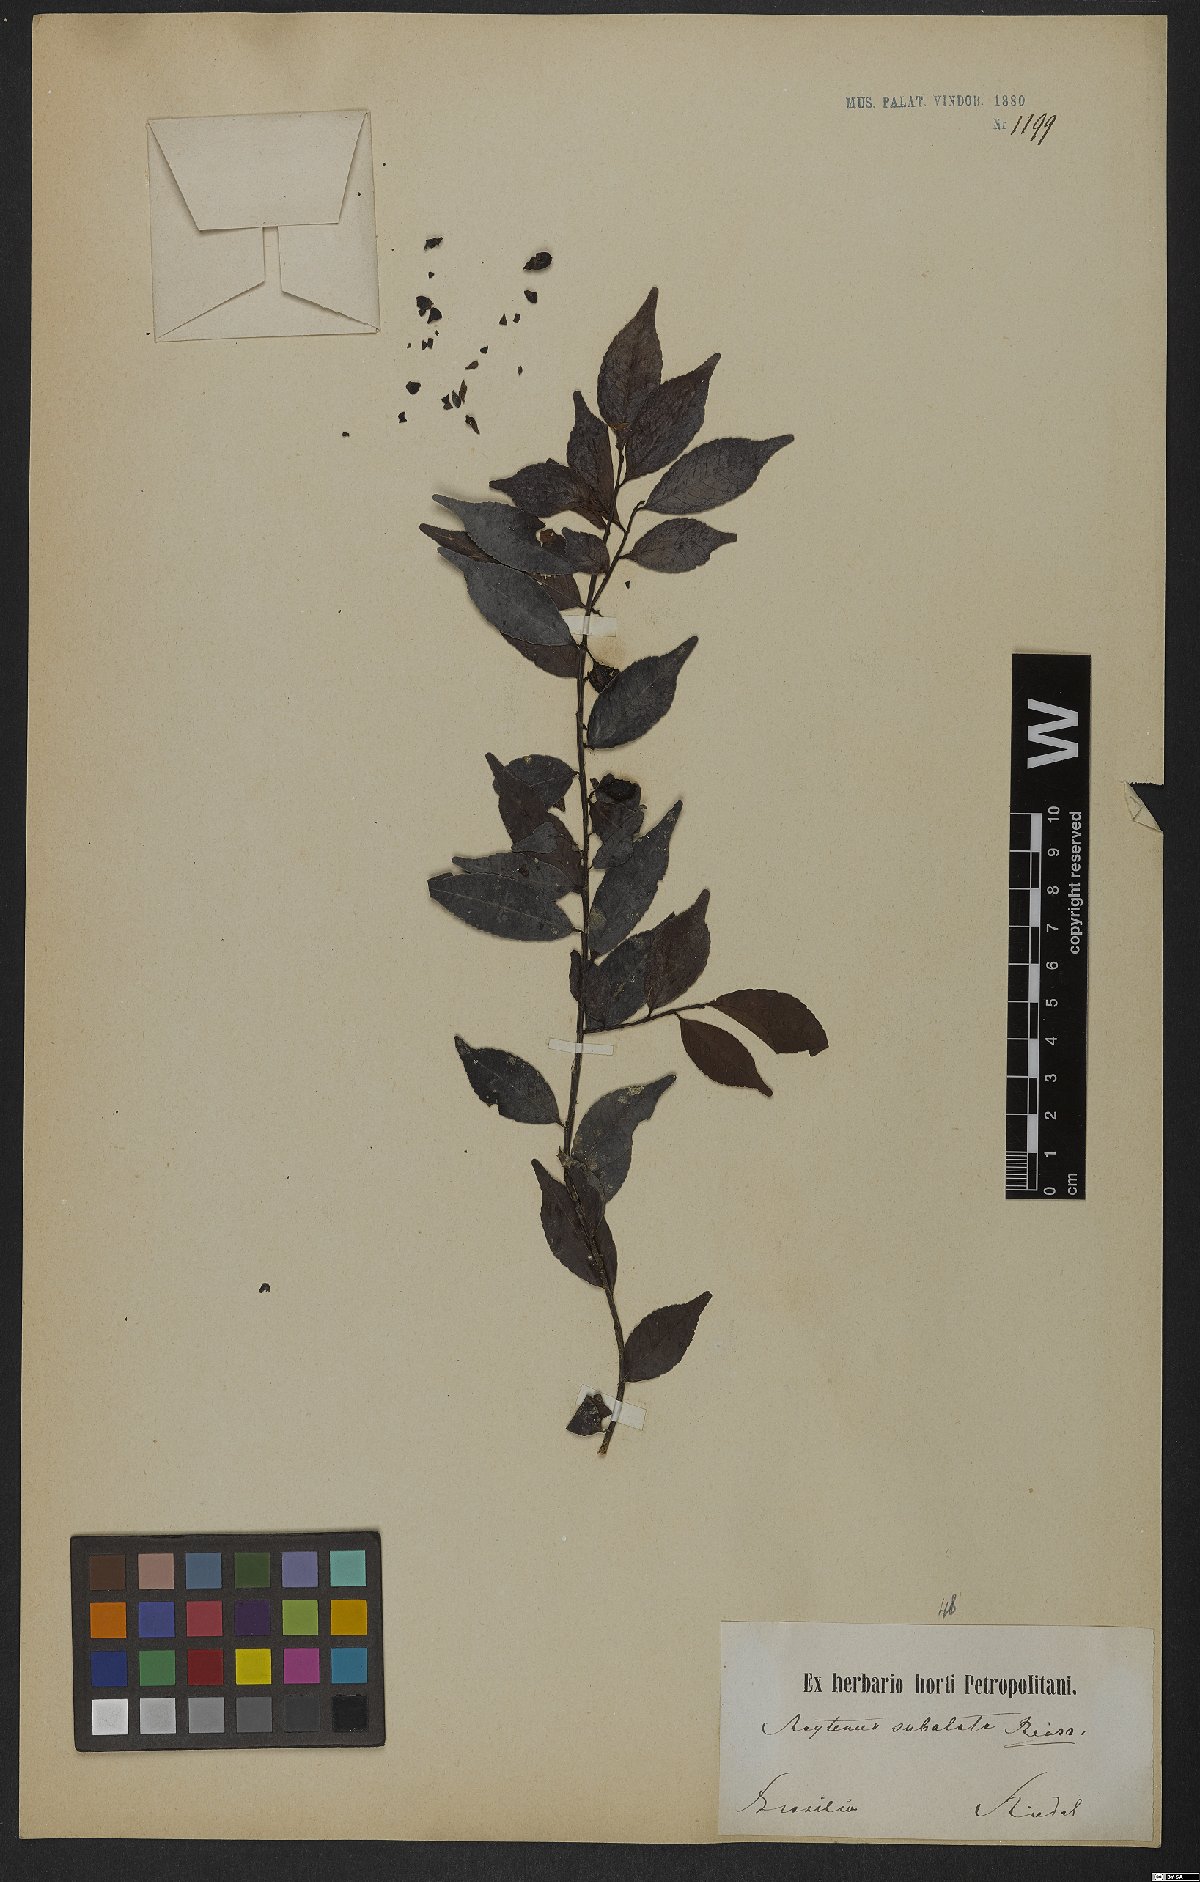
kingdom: Plantae
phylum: Tracheophyta
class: Magnoliopsida
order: Celastrales
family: Celastraceae
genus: Monteverdia
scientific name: Monteverdia subalata
